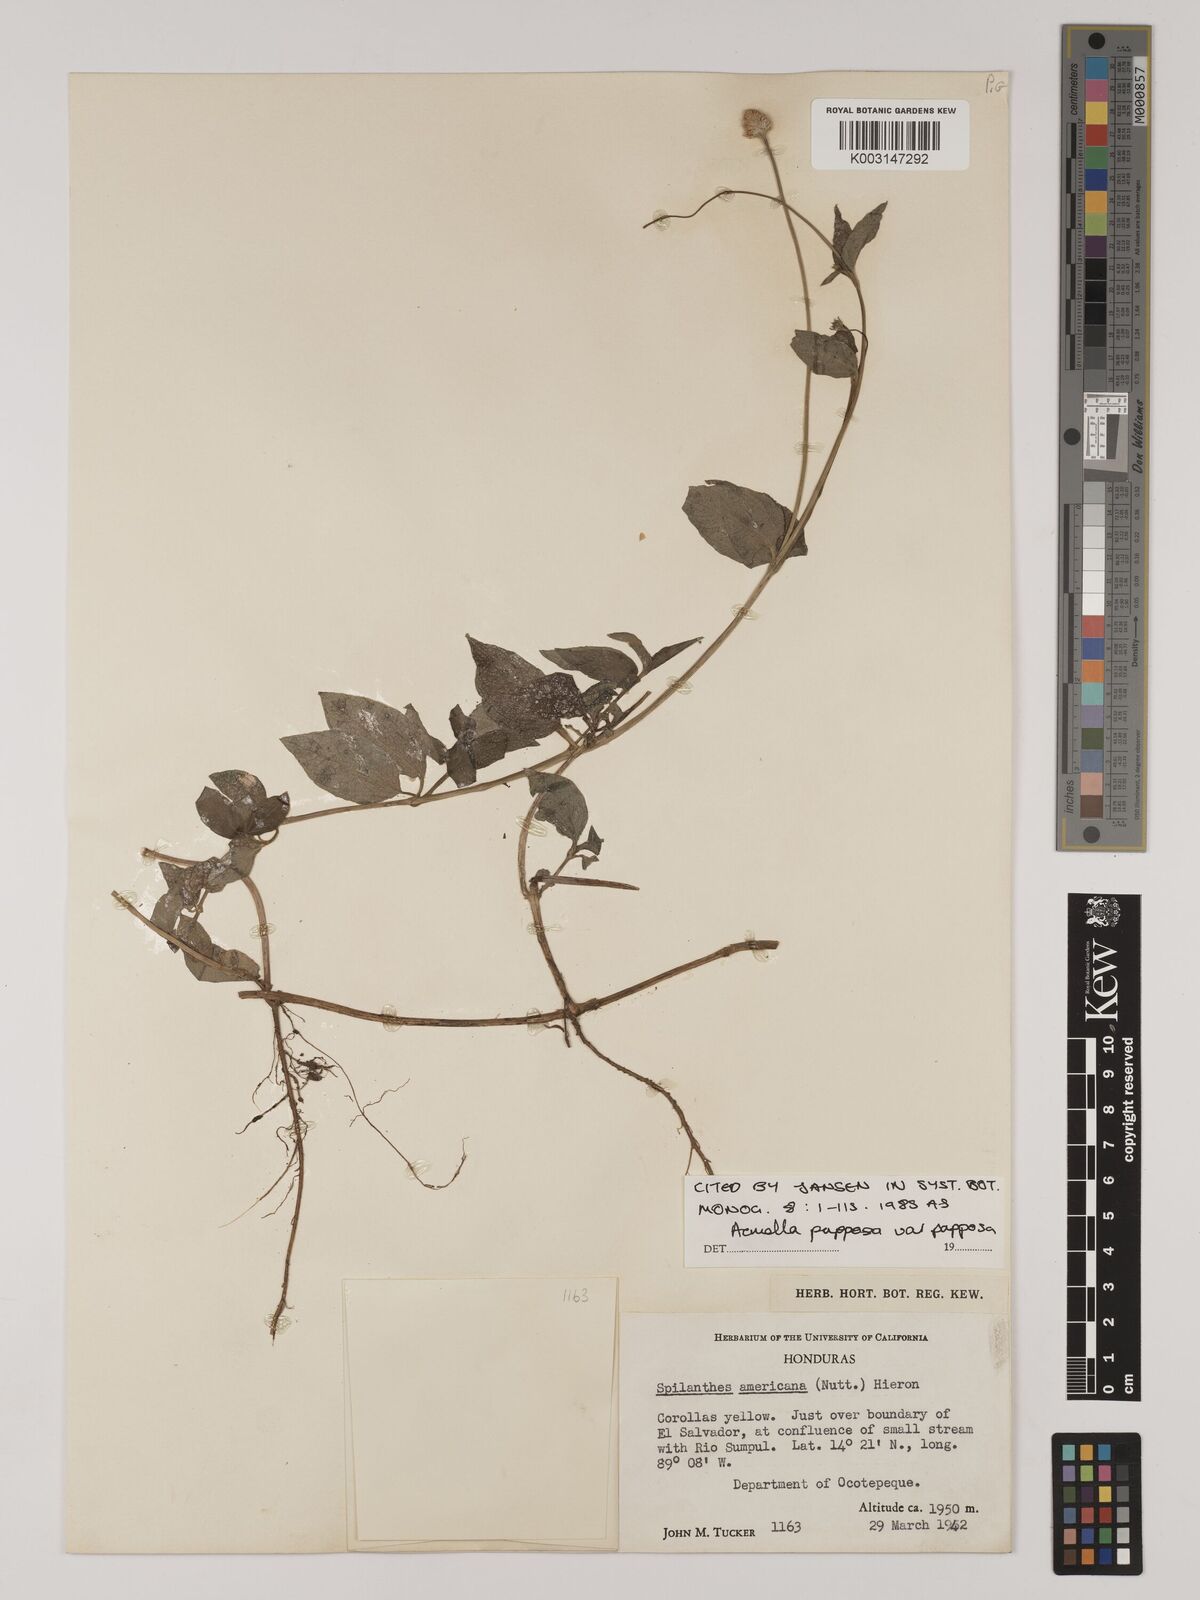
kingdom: Plantae
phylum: Tracheophyta
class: Magnoliopsida
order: Asterales
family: Asteraceae
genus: Acmella
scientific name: Acmella papposa
